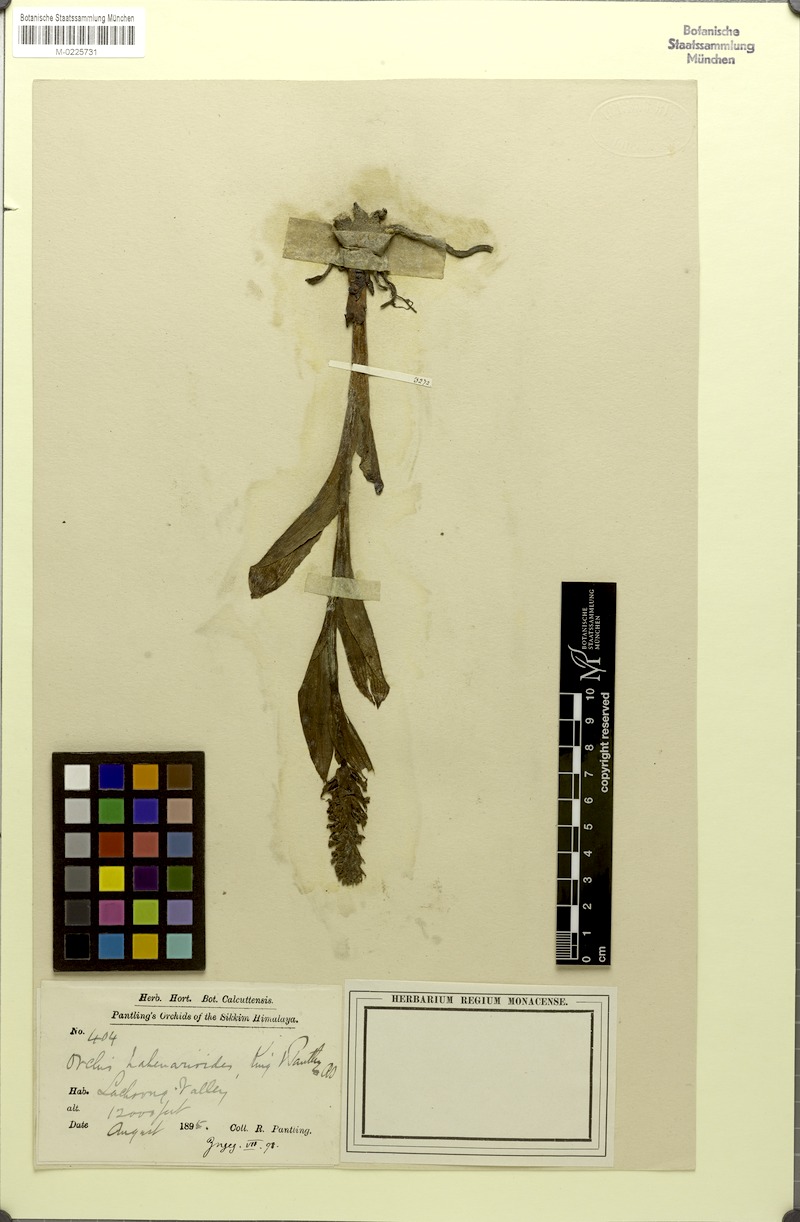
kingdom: Plantae
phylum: Tracheophyta
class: Liliopsida
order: Asparagales
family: Orchidaceae
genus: Gymnadenia
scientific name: Gymnadenia orchidis
